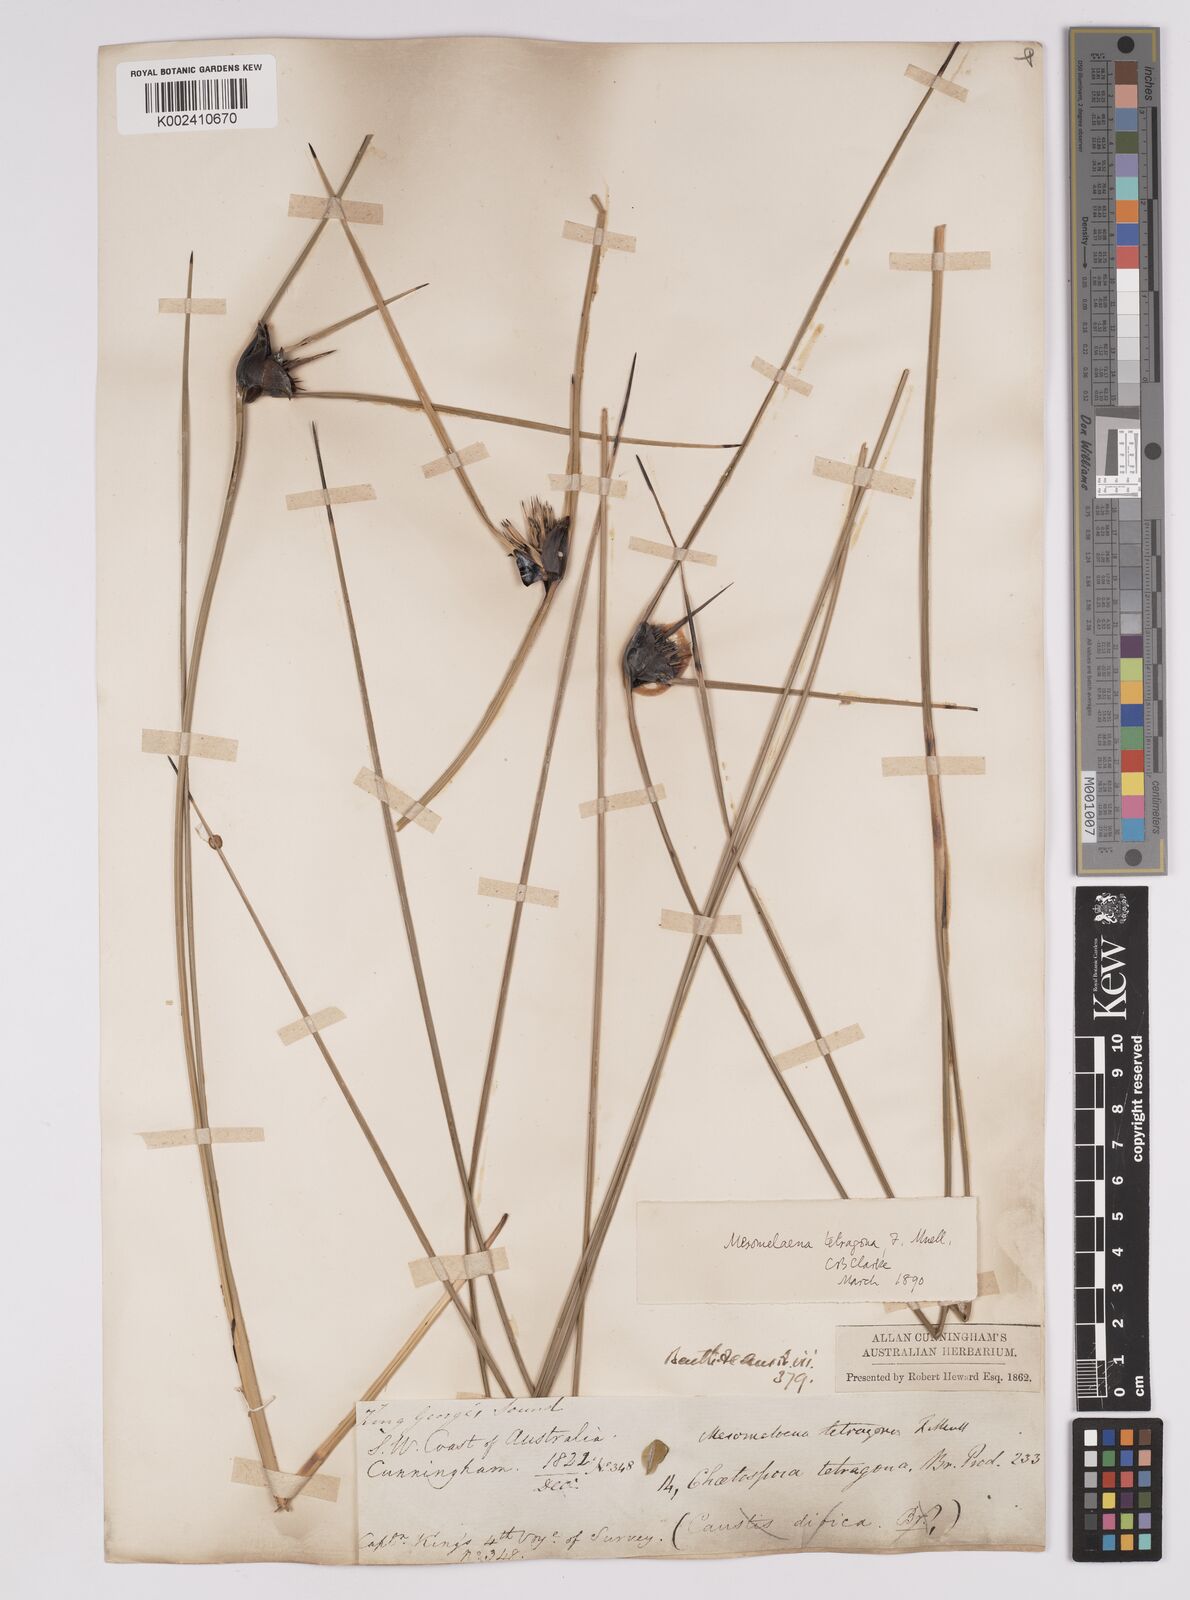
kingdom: Plantae
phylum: Tracheophyta
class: Liliopsida
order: Poales
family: Cyperaceae
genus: Mesomelaena
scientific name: Mesomelaena tetragona
